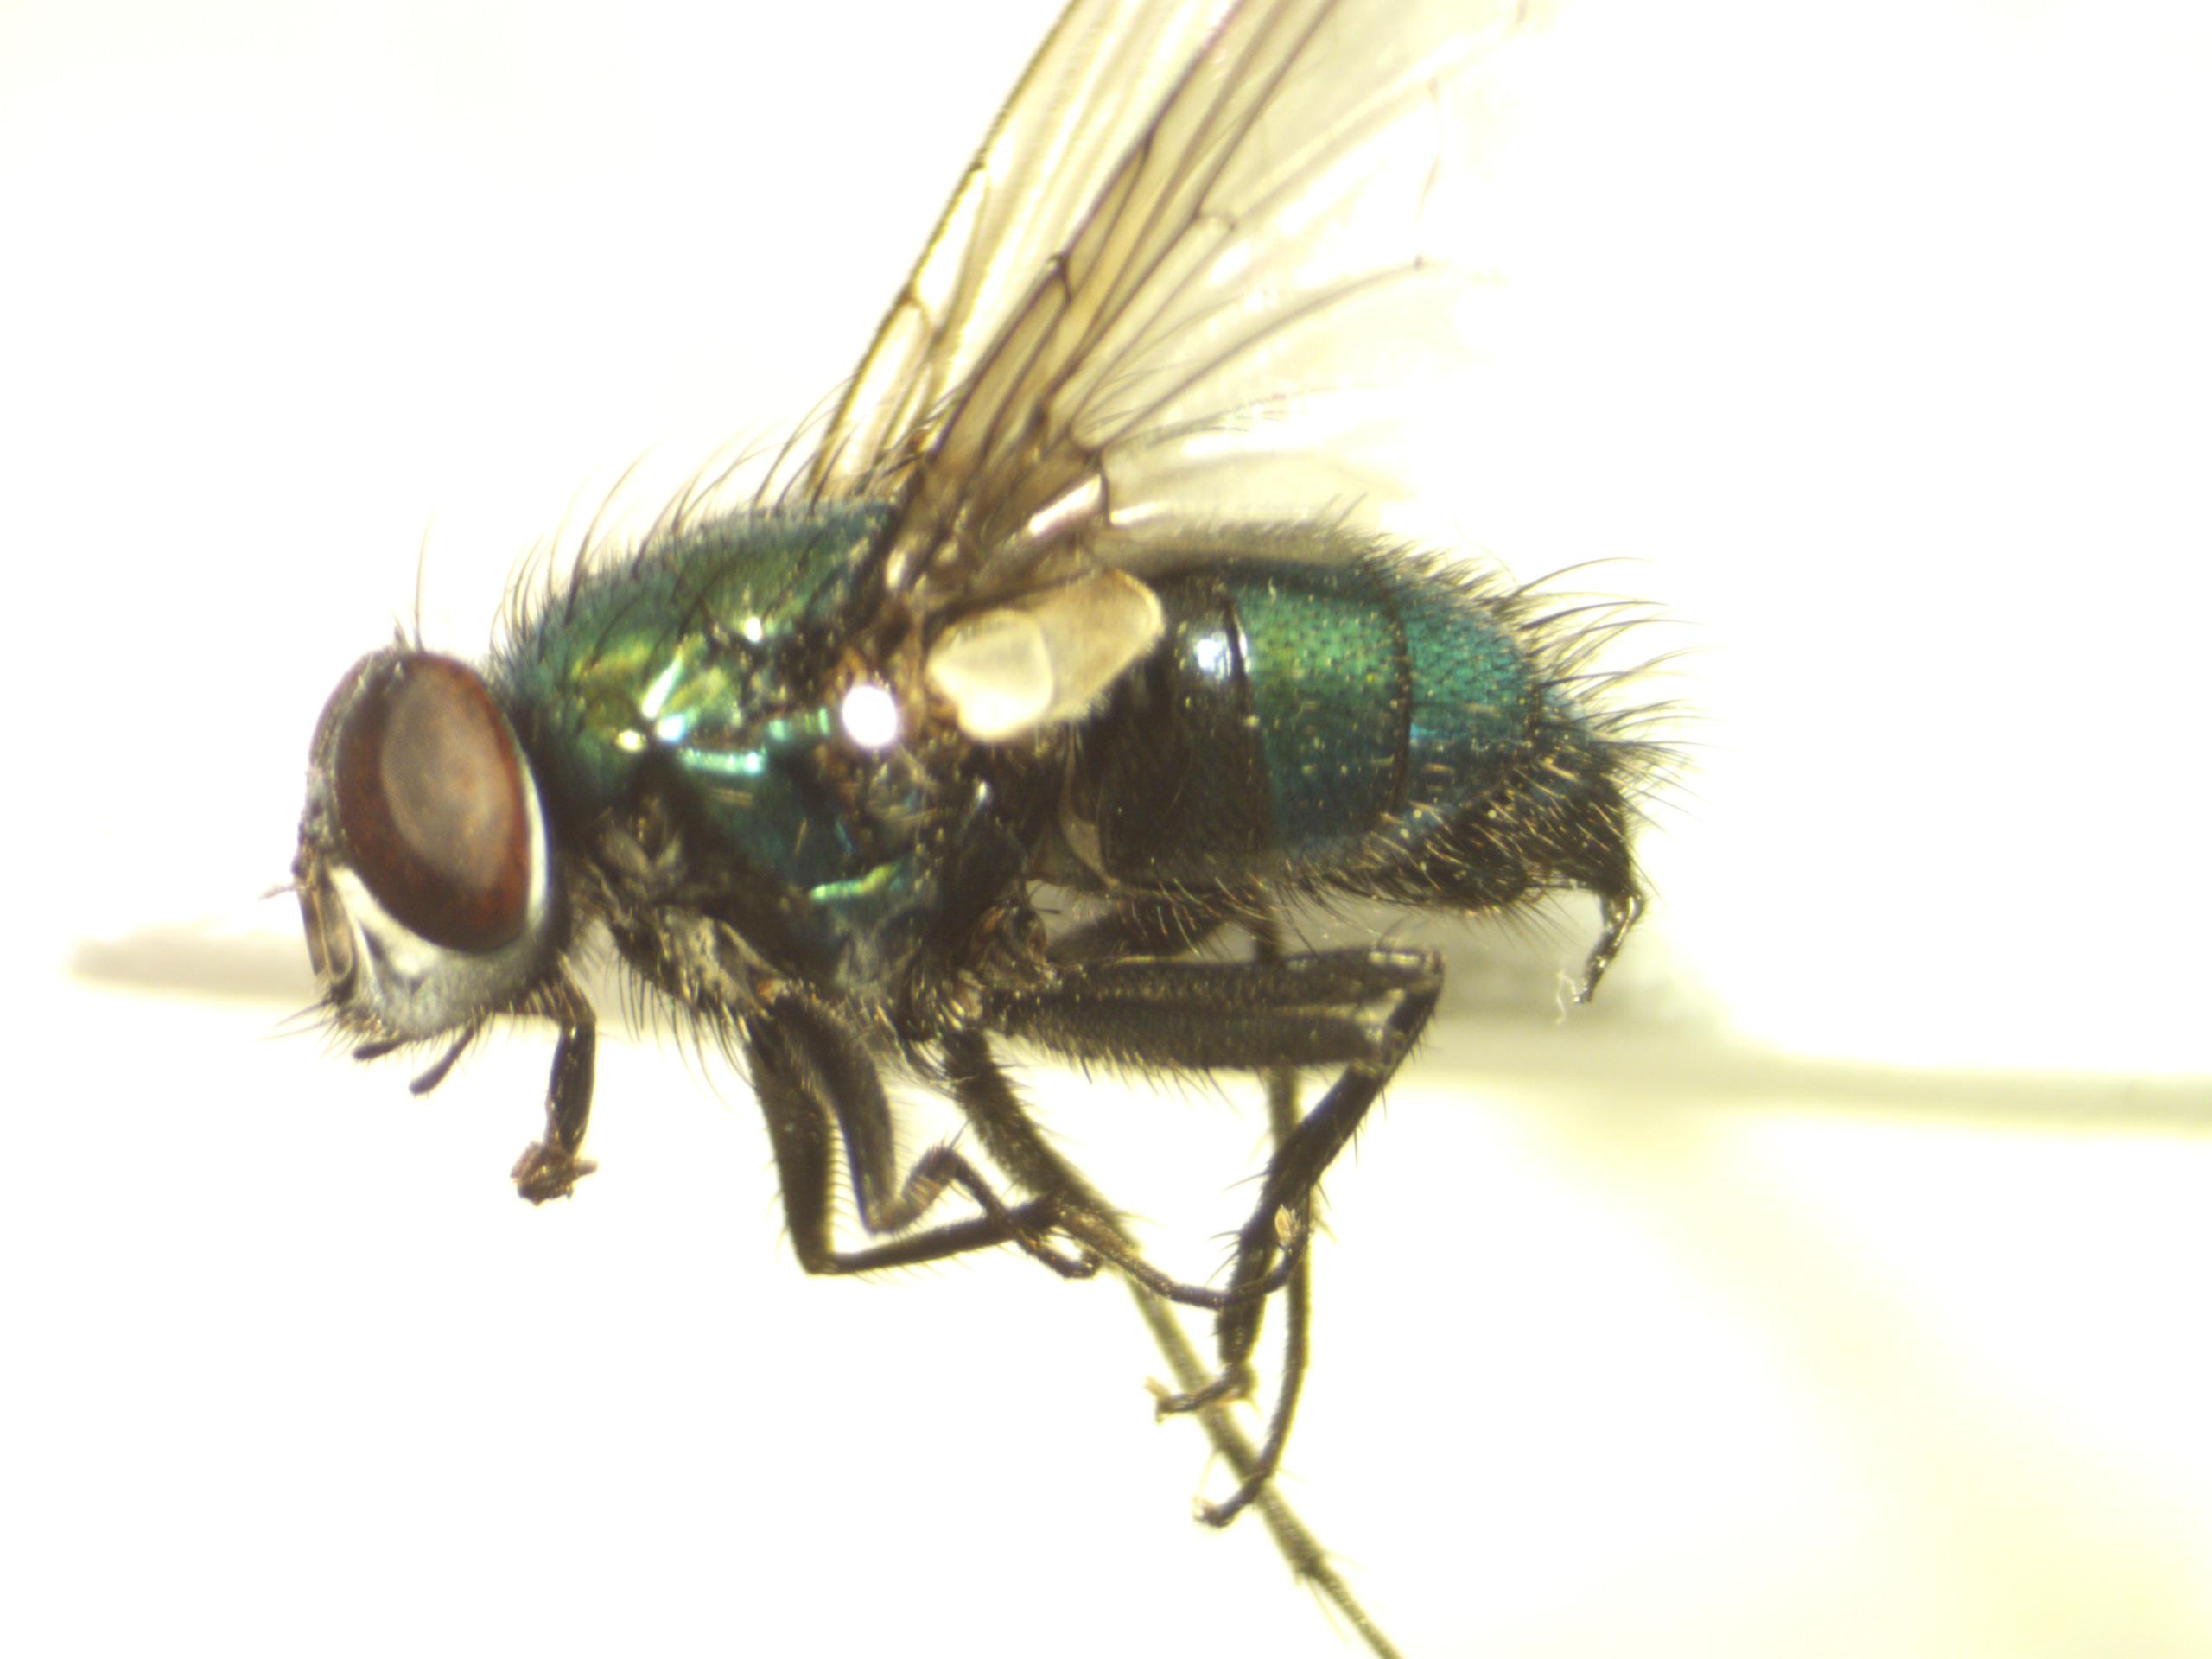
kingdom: Animalia
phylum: Arthropoda
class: Insecta
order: Diptera
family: Calliphoridae
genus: Lucilia
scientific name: Lucilia silvarum
